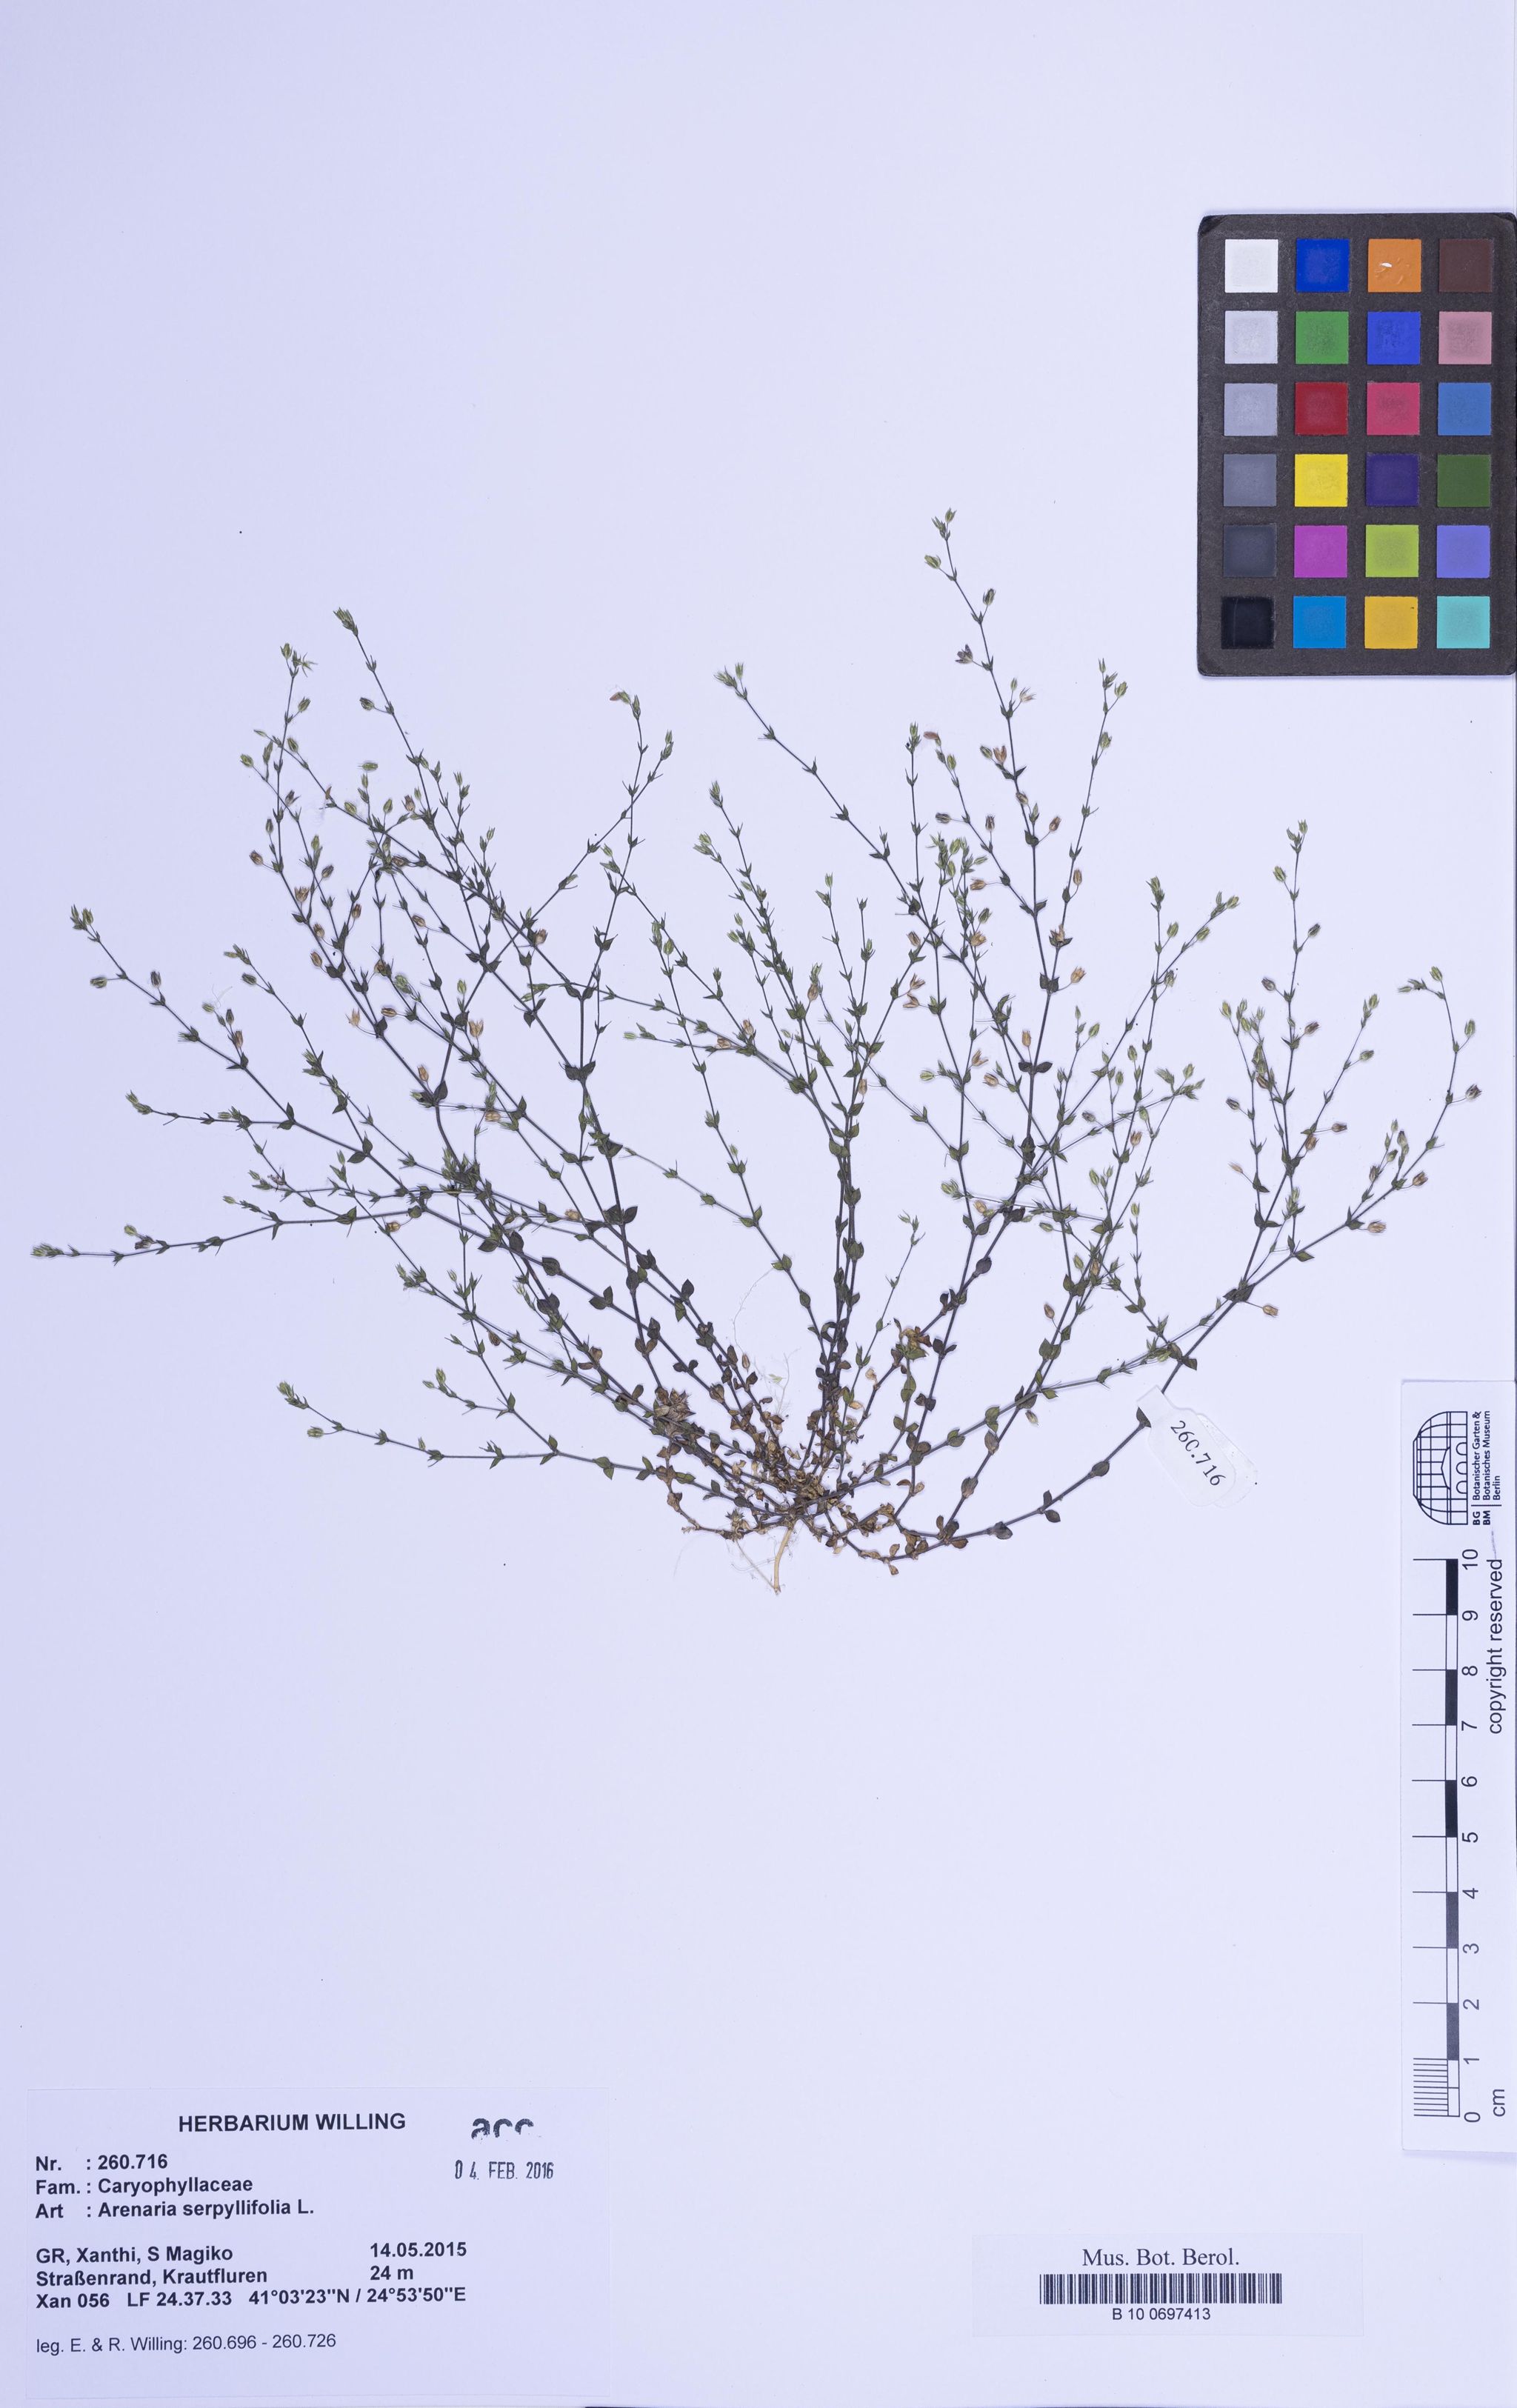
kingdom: Plantae
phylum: Tracheophyta
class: Magnoliopsida
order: Caryophyllales
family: Caryophyllaceae
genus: Arenaria
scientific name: Arenaria serpyllifolia
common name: Thyme-leaved sandwort
